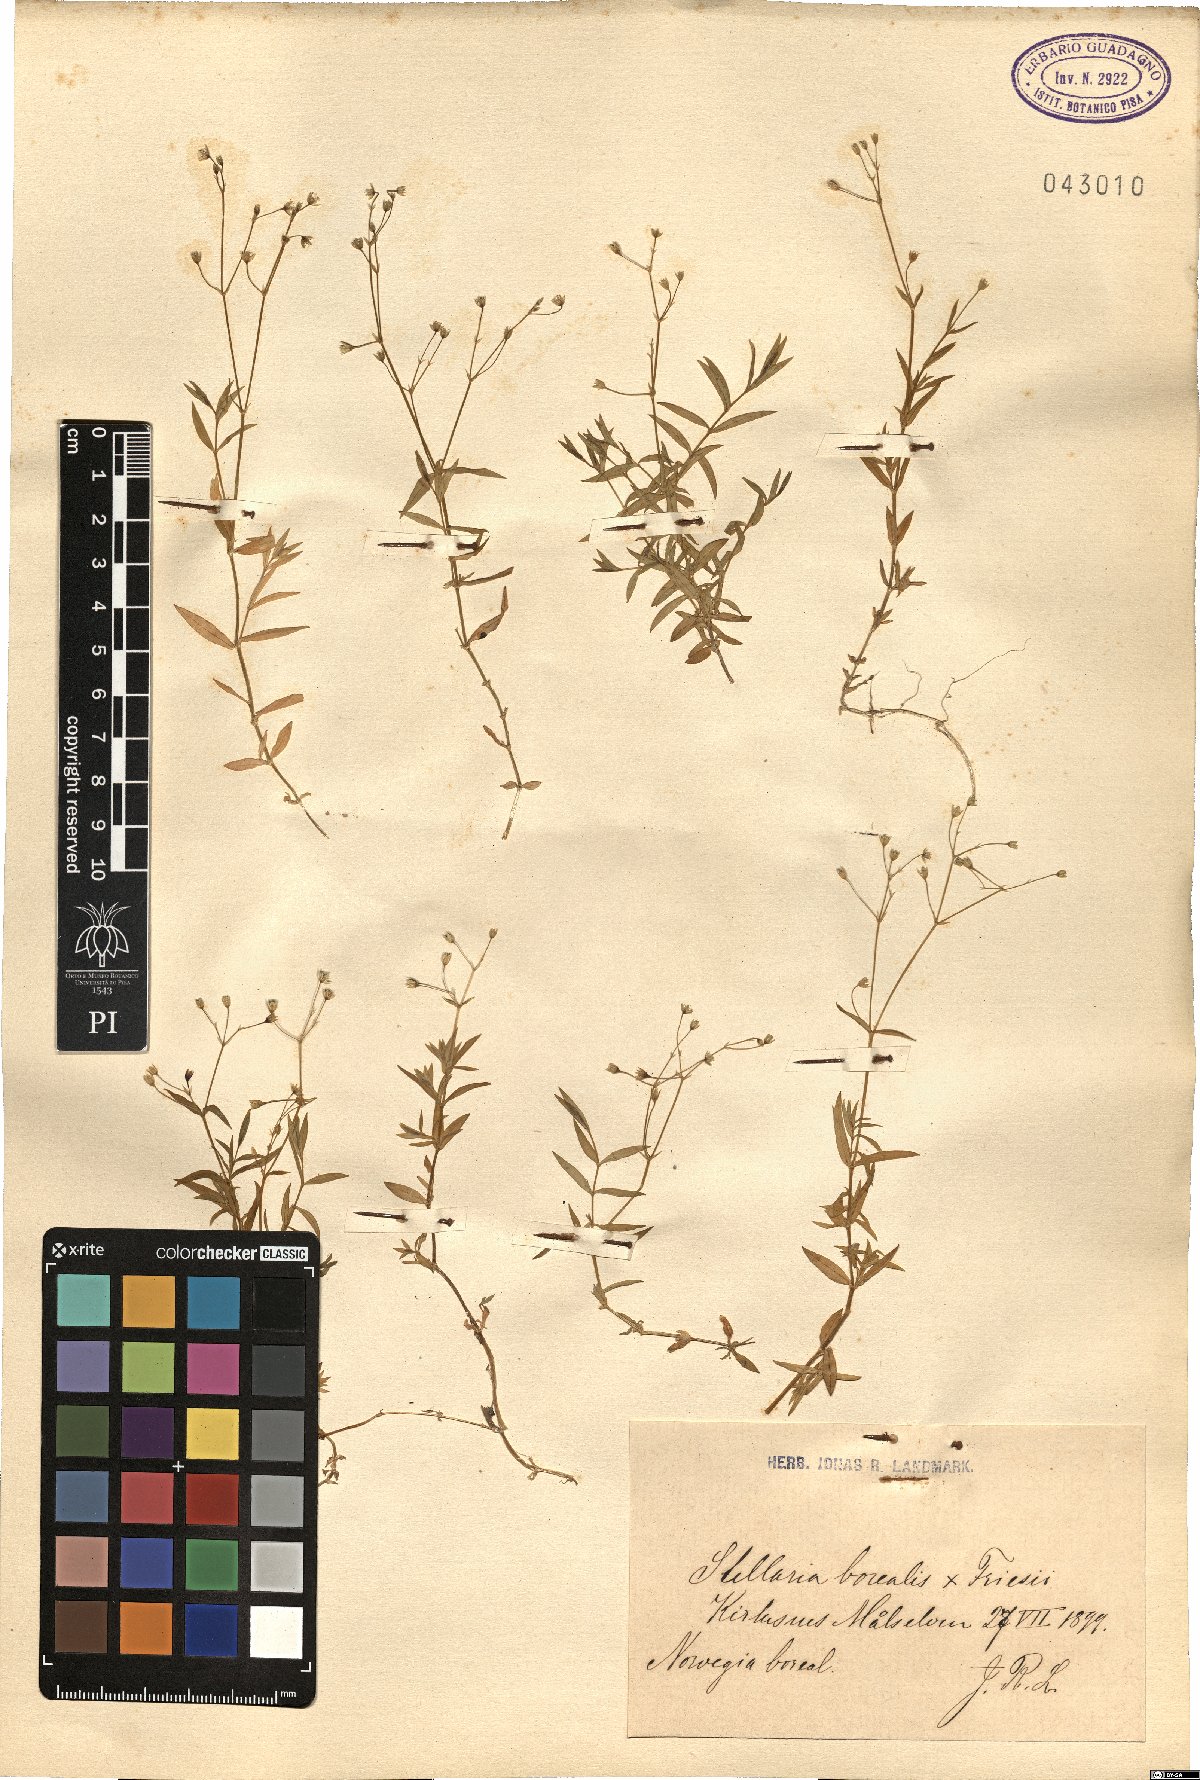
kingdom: Plantae
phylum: Tracheophyta
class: Magnoliopsida
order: Caryophyllales
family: Caryophyllaceae
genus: Stellaria
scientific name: Stellaria borealis
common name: Boreal starwort
